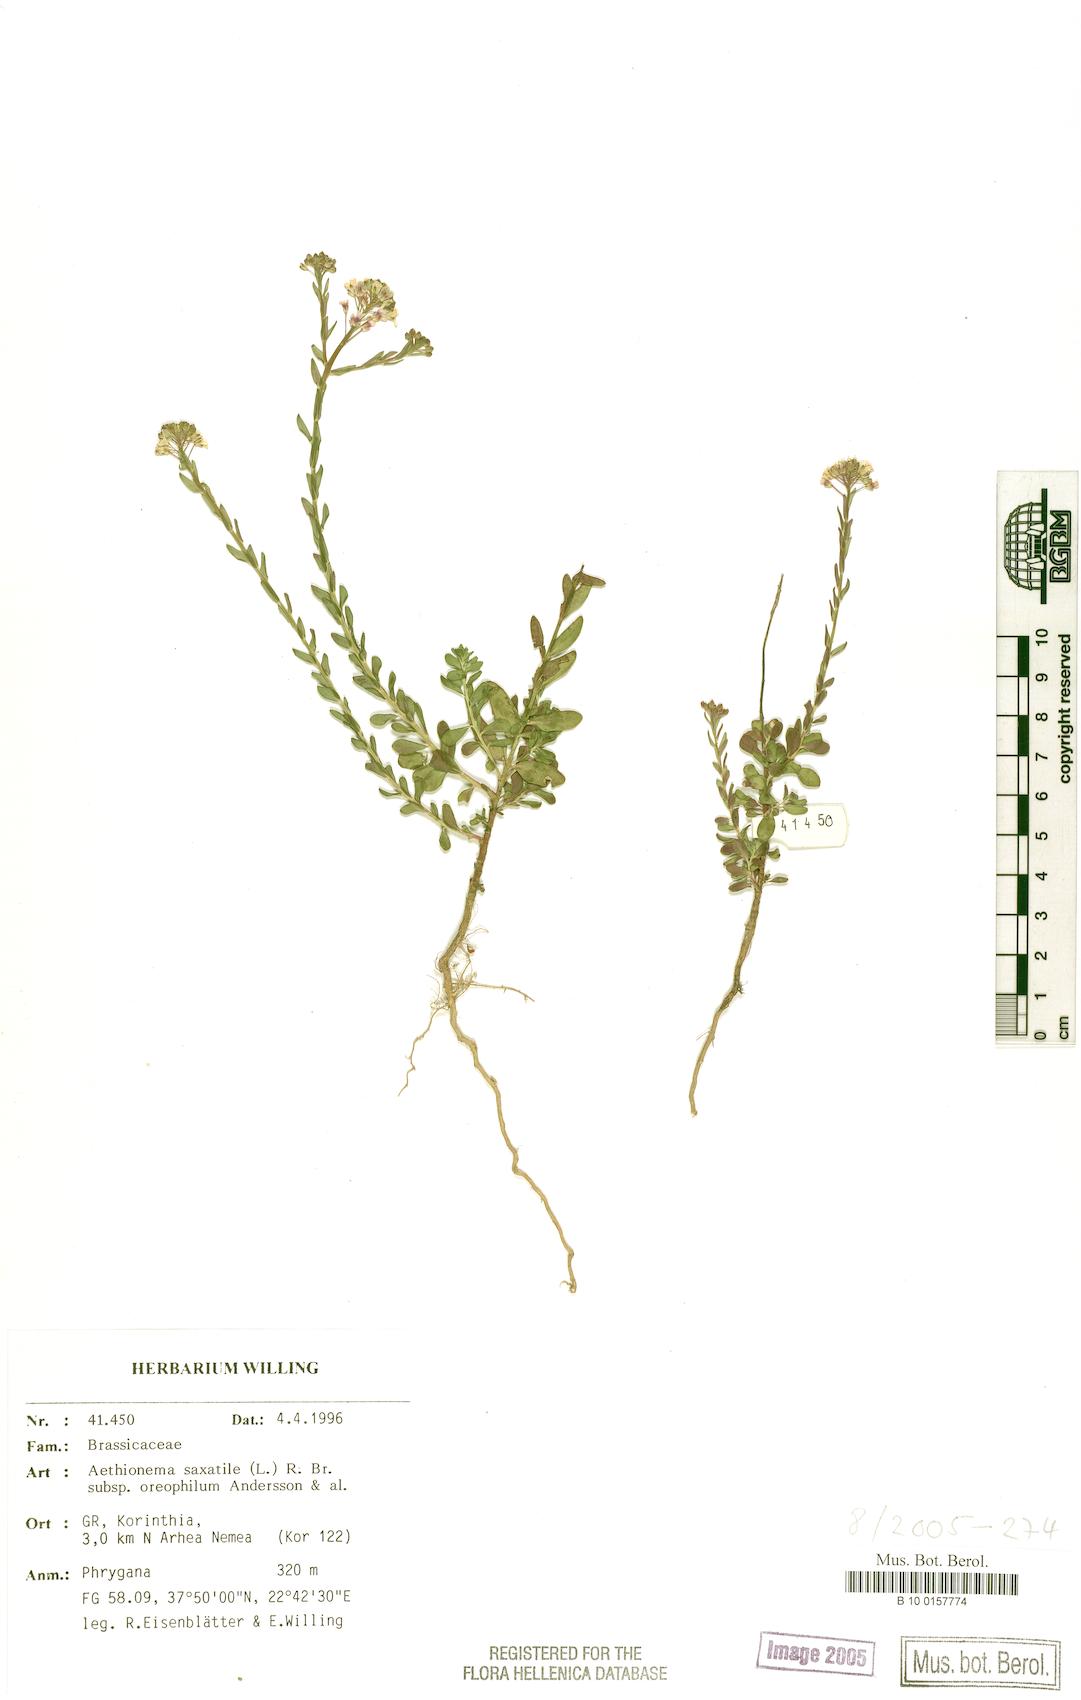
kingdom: Plantae
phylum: Tracheophyta
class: Magnoliopsida
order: Brassicales
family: Brassicaceae
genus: Aethionema
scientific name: Aethionema saxatile
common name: Burnt candytuft
